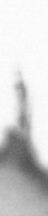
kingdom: Animalia
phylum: Arthropoda
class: Copepoda
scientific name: Copepoda
